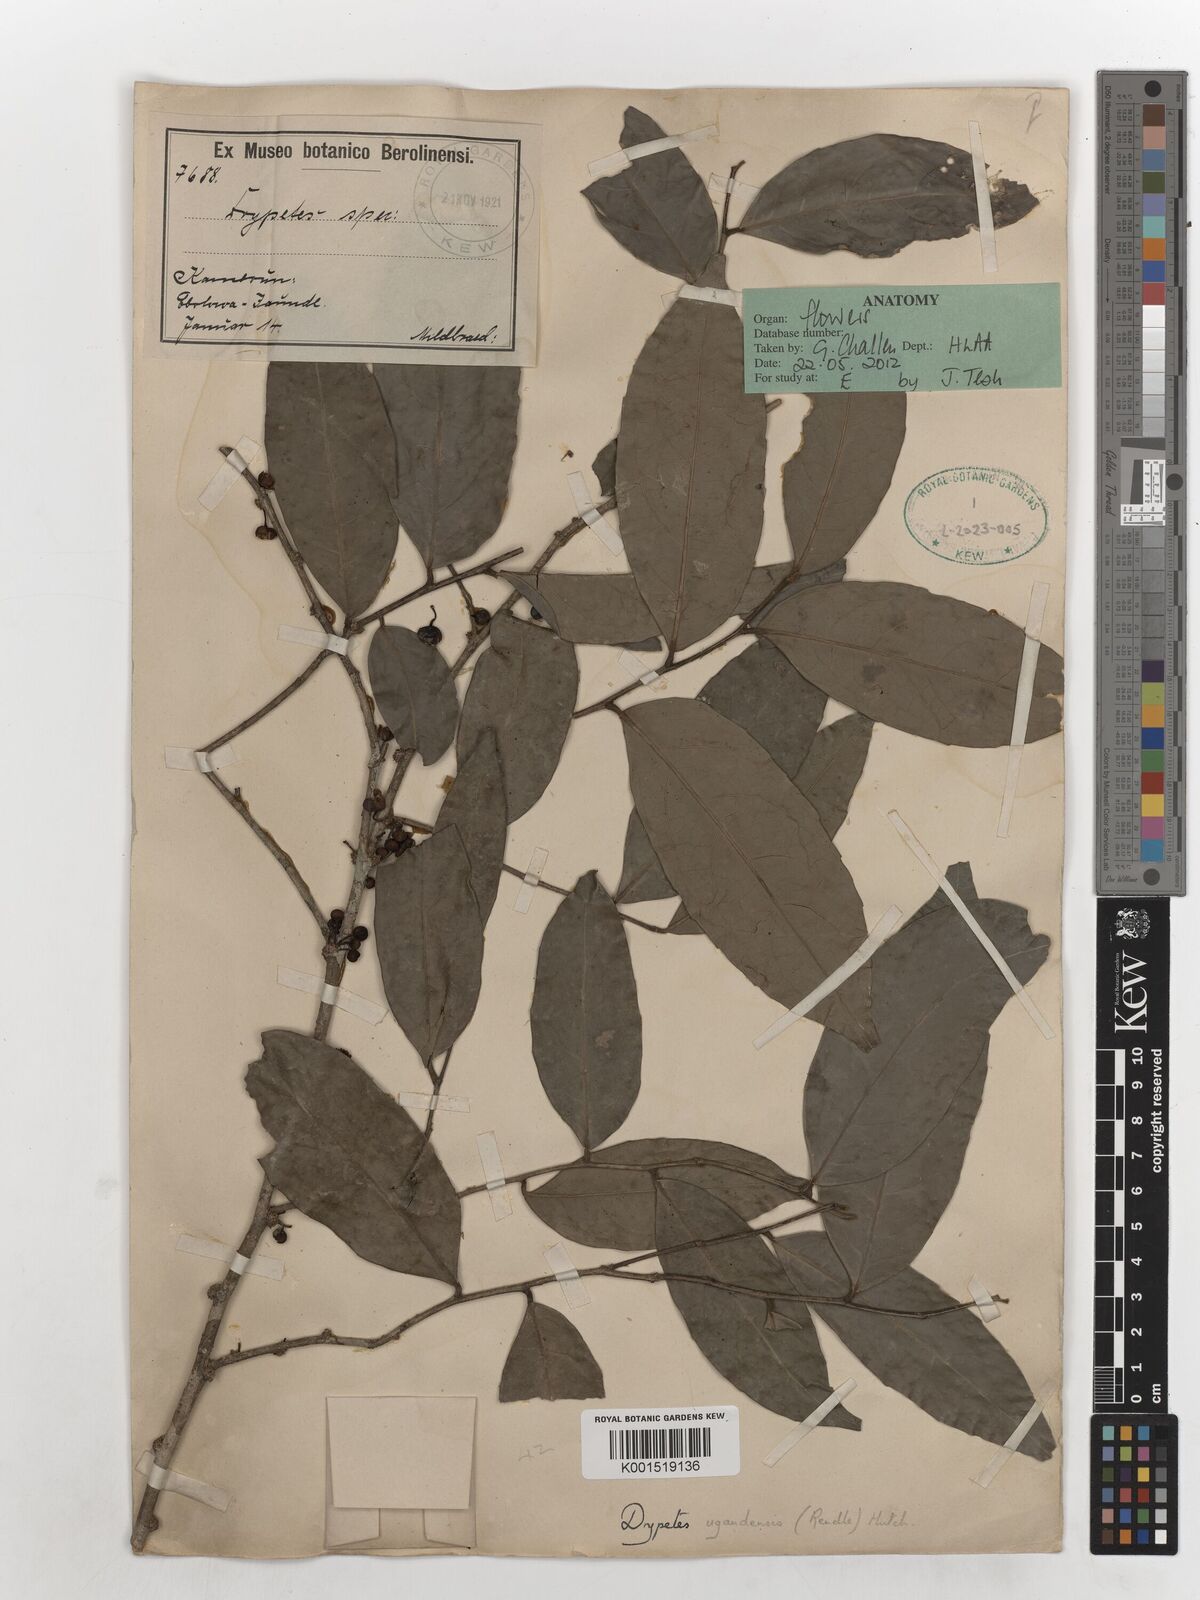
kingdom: Plantae
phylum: Tracheophyta
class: Magnoliopsida
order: Malpighiales
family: Putranjivaceae
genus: Drypetes
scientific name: Drypetes polyantha
